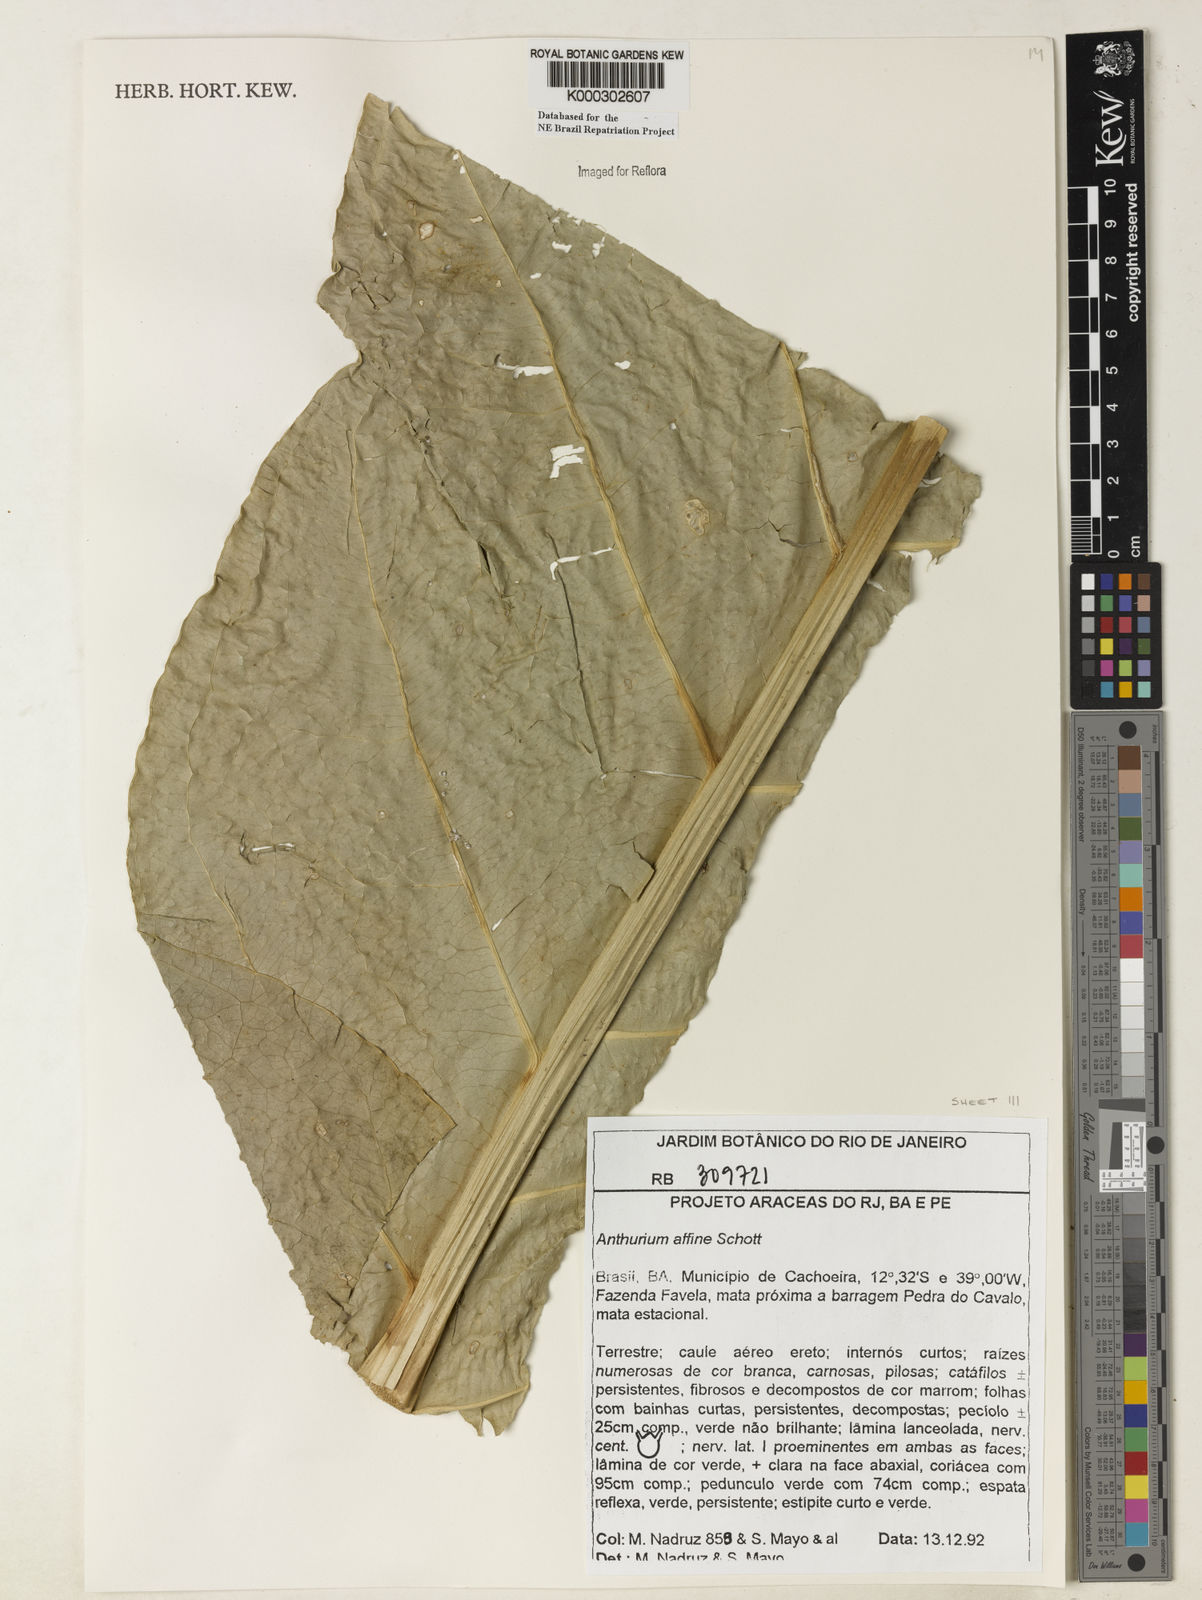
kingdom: Plantae
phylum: Tracheophyta
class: Liliopsida
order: Alismatales
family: Araceae
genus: Anthurium
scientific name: Anthurium affine
